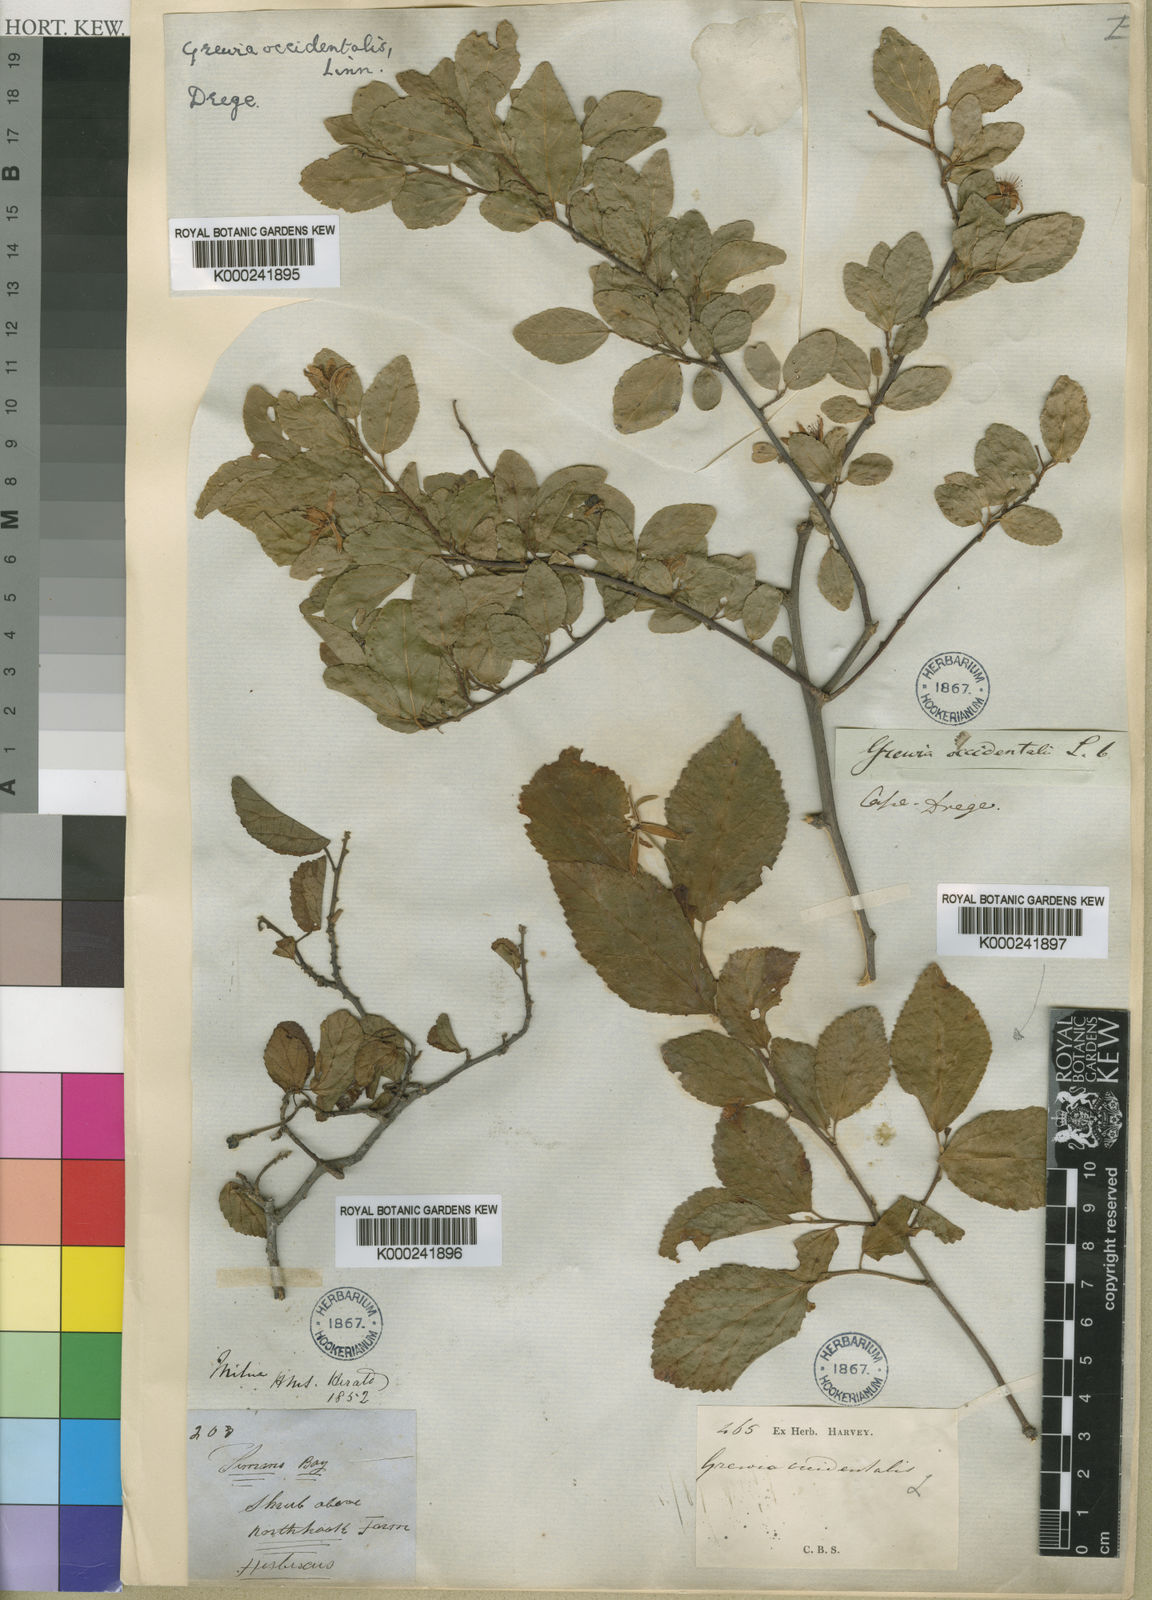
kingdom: Plantae
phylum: Tracheophyta
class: Magnoliopsida
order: Malvales
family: Malvaceae
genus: Grewia
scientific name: Grewia occidentalis
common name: Crossberry
